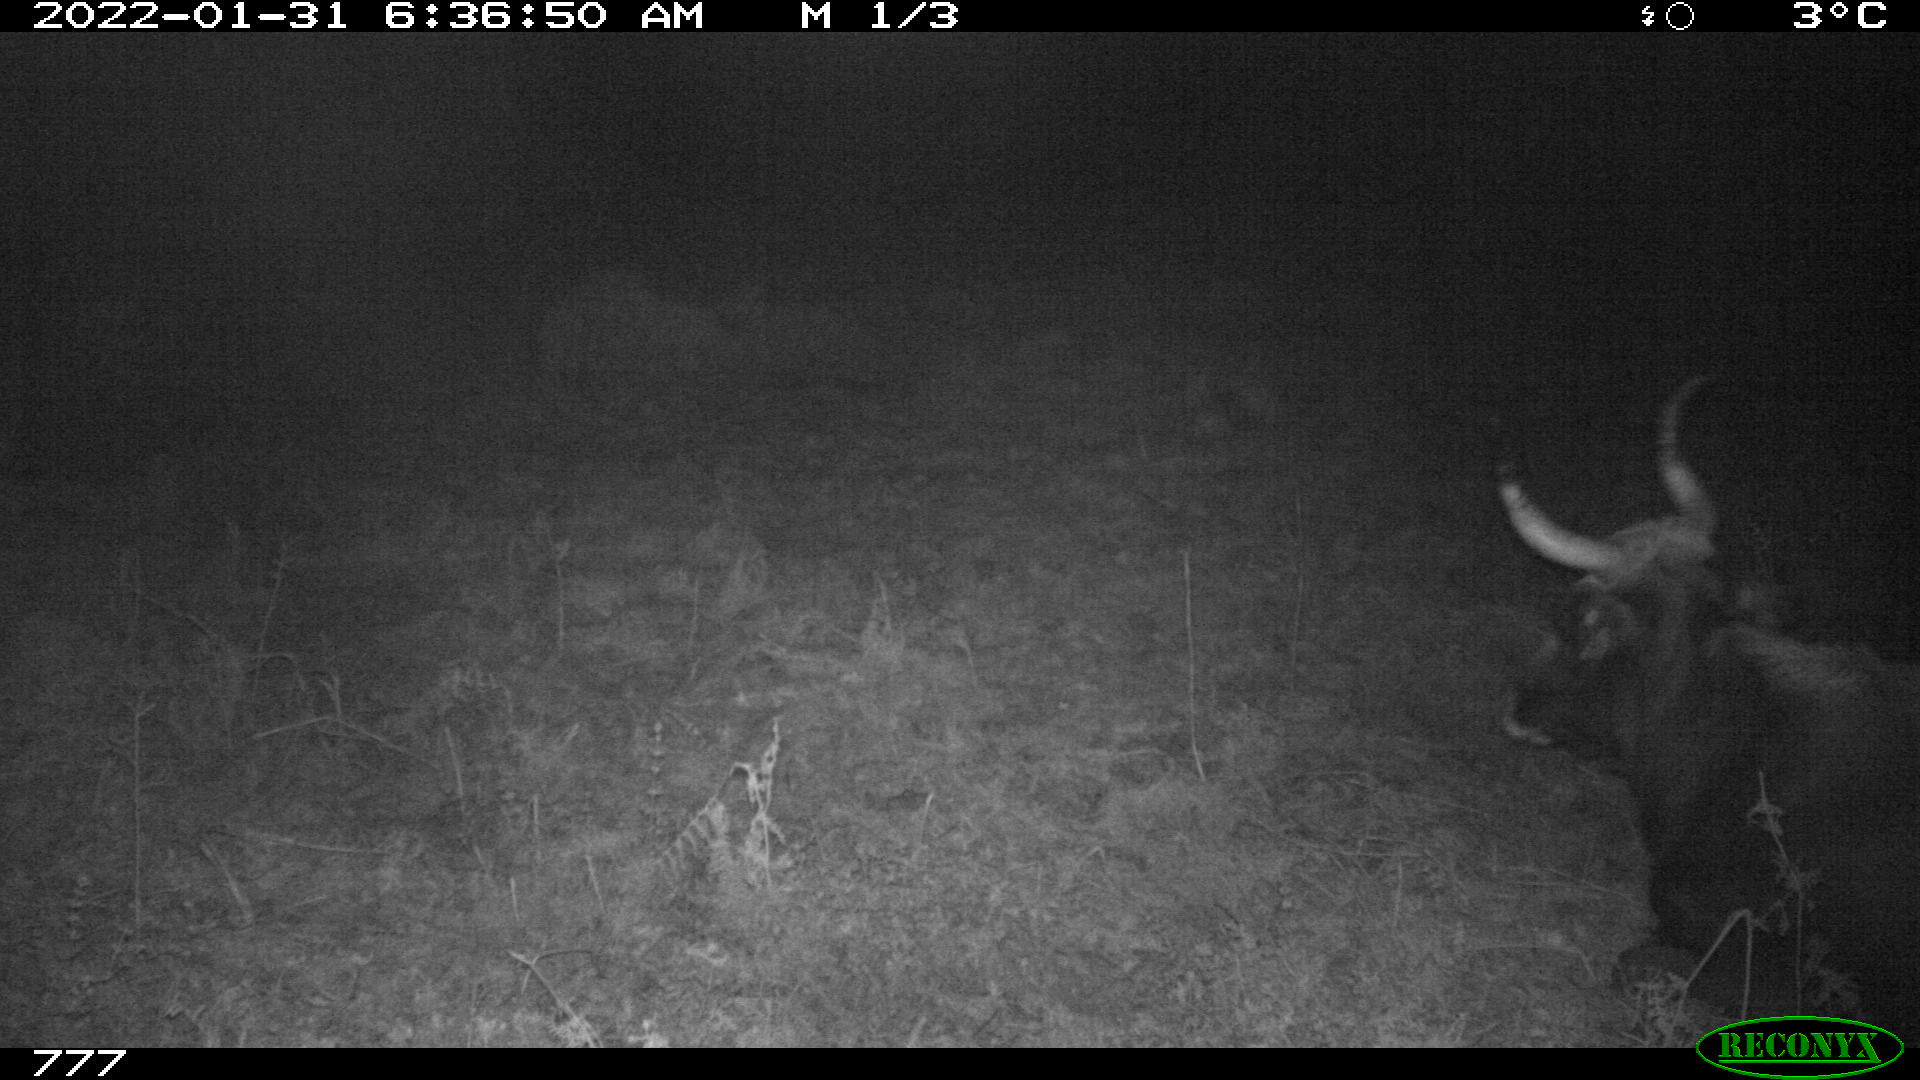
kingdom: Animalia
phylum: Chordata
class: Mammalia
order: Artiodactyla
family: Bovidae
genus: Bos
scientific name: Bos taurus
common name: Domesticated cattle
